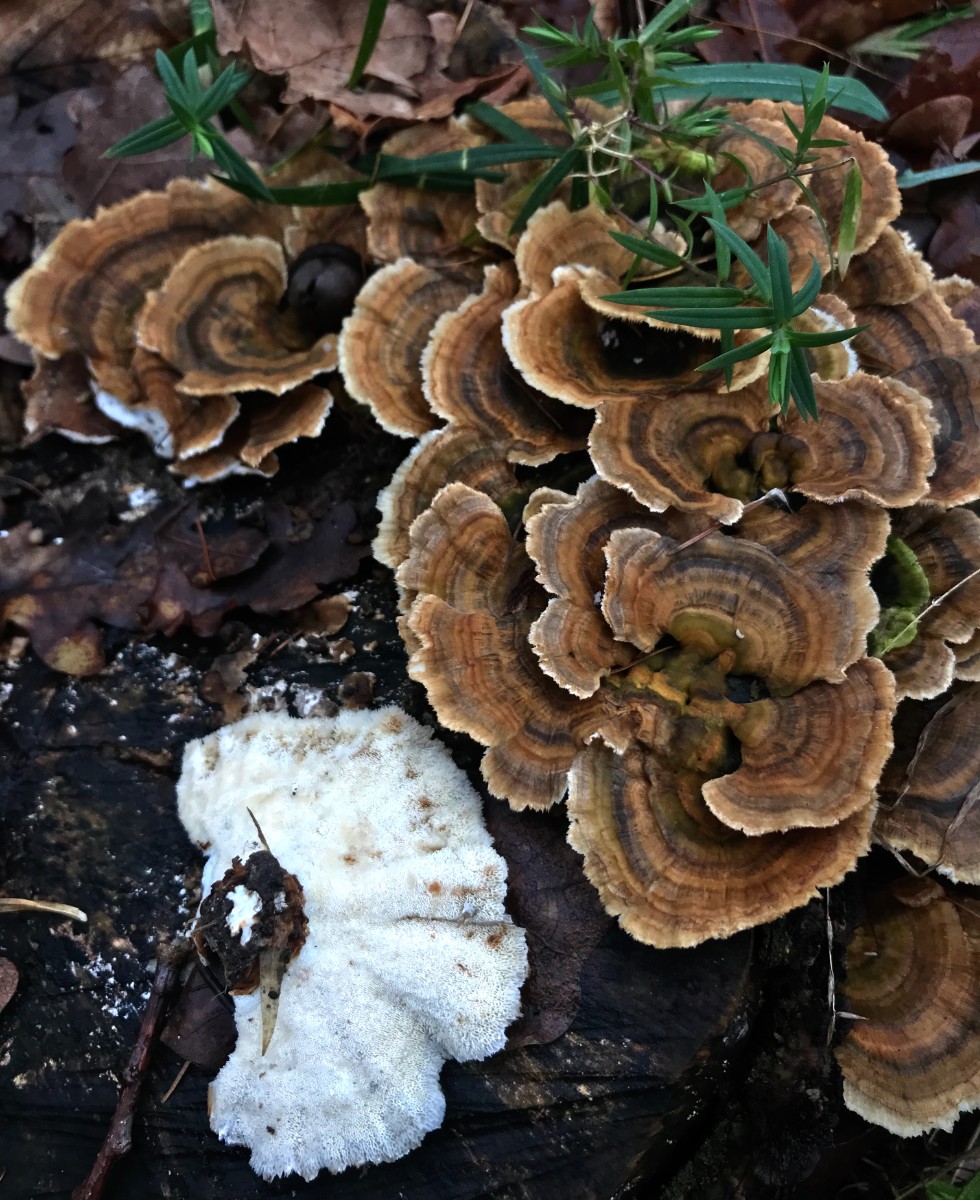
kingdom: Fungi
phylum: Basidiomycota
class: Agaricomycetes
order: Polyporales
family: Polyporaceae
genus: Trametes
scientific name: Trametes versicolor
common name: broget læderporesvamp
